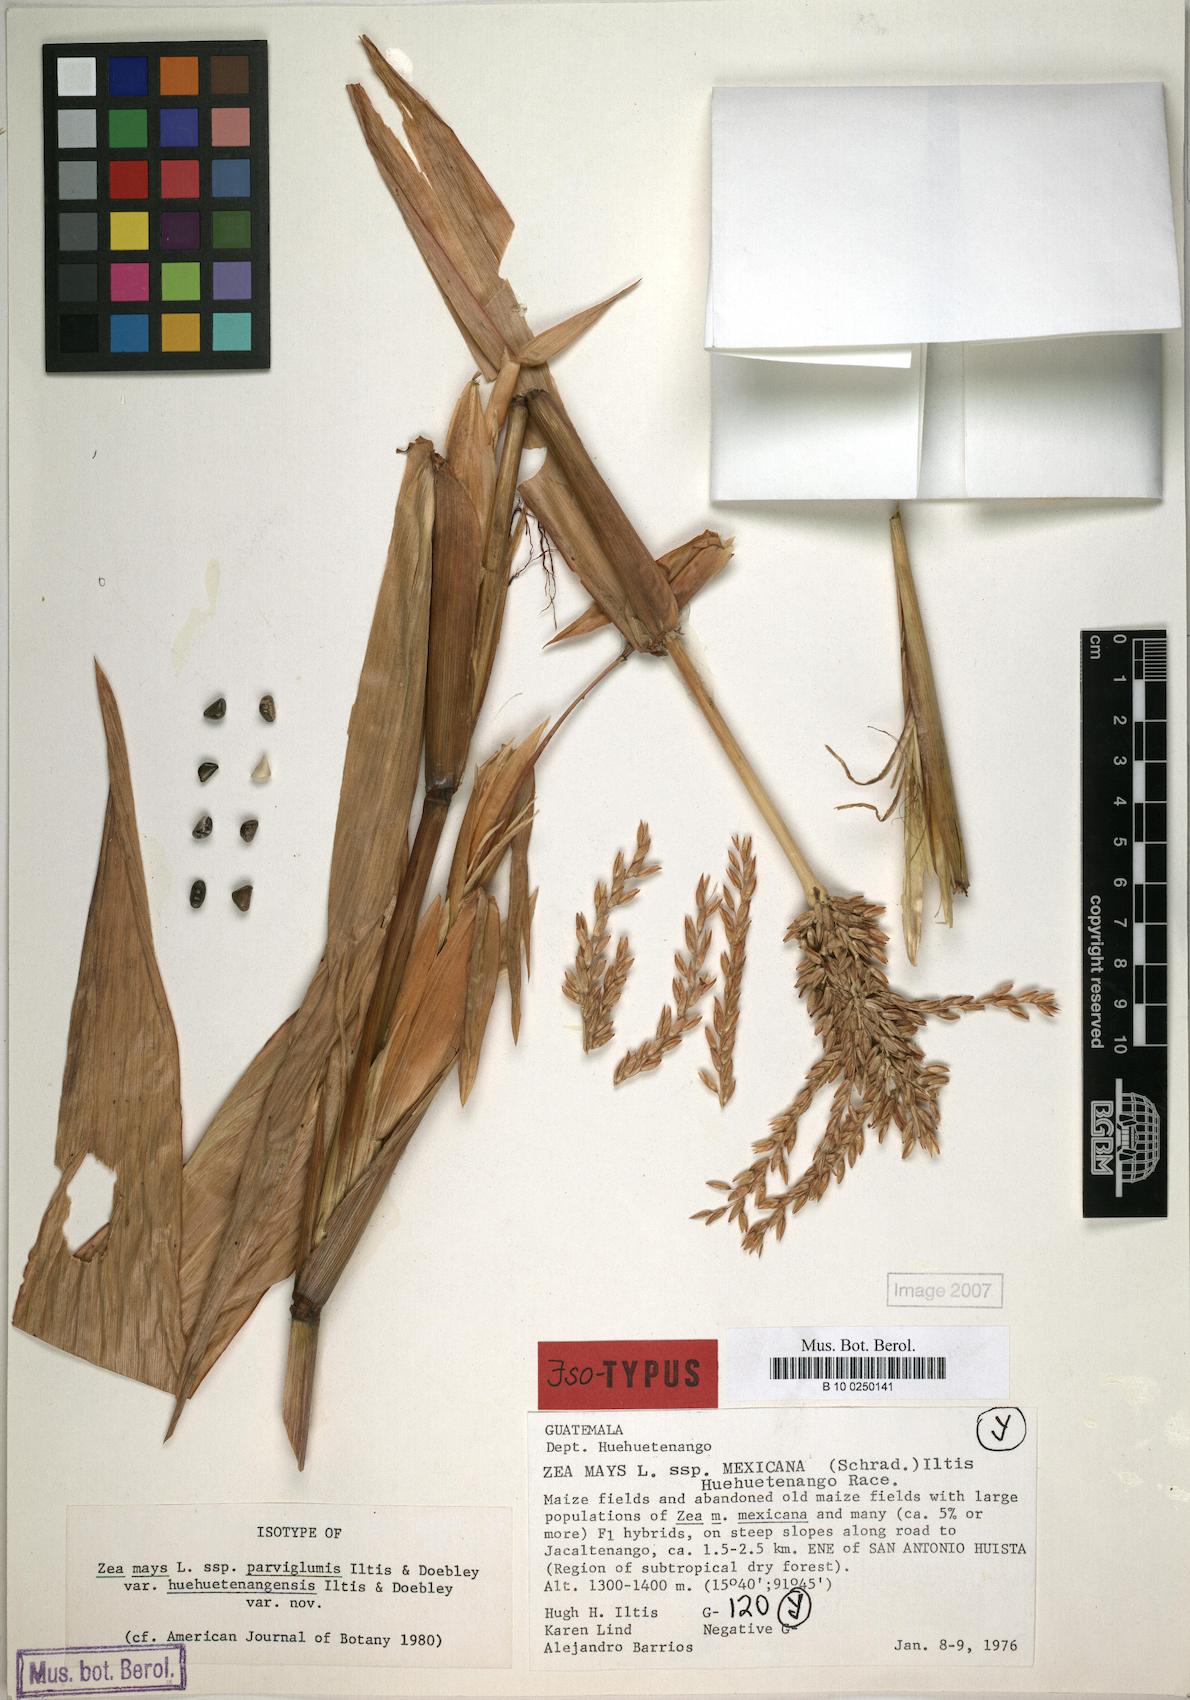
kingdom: Plantae
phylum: Tracheophyta
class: Liliopsida
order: Poales
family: Poaceae
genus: Zea
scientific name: Zea mays
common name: Maize
